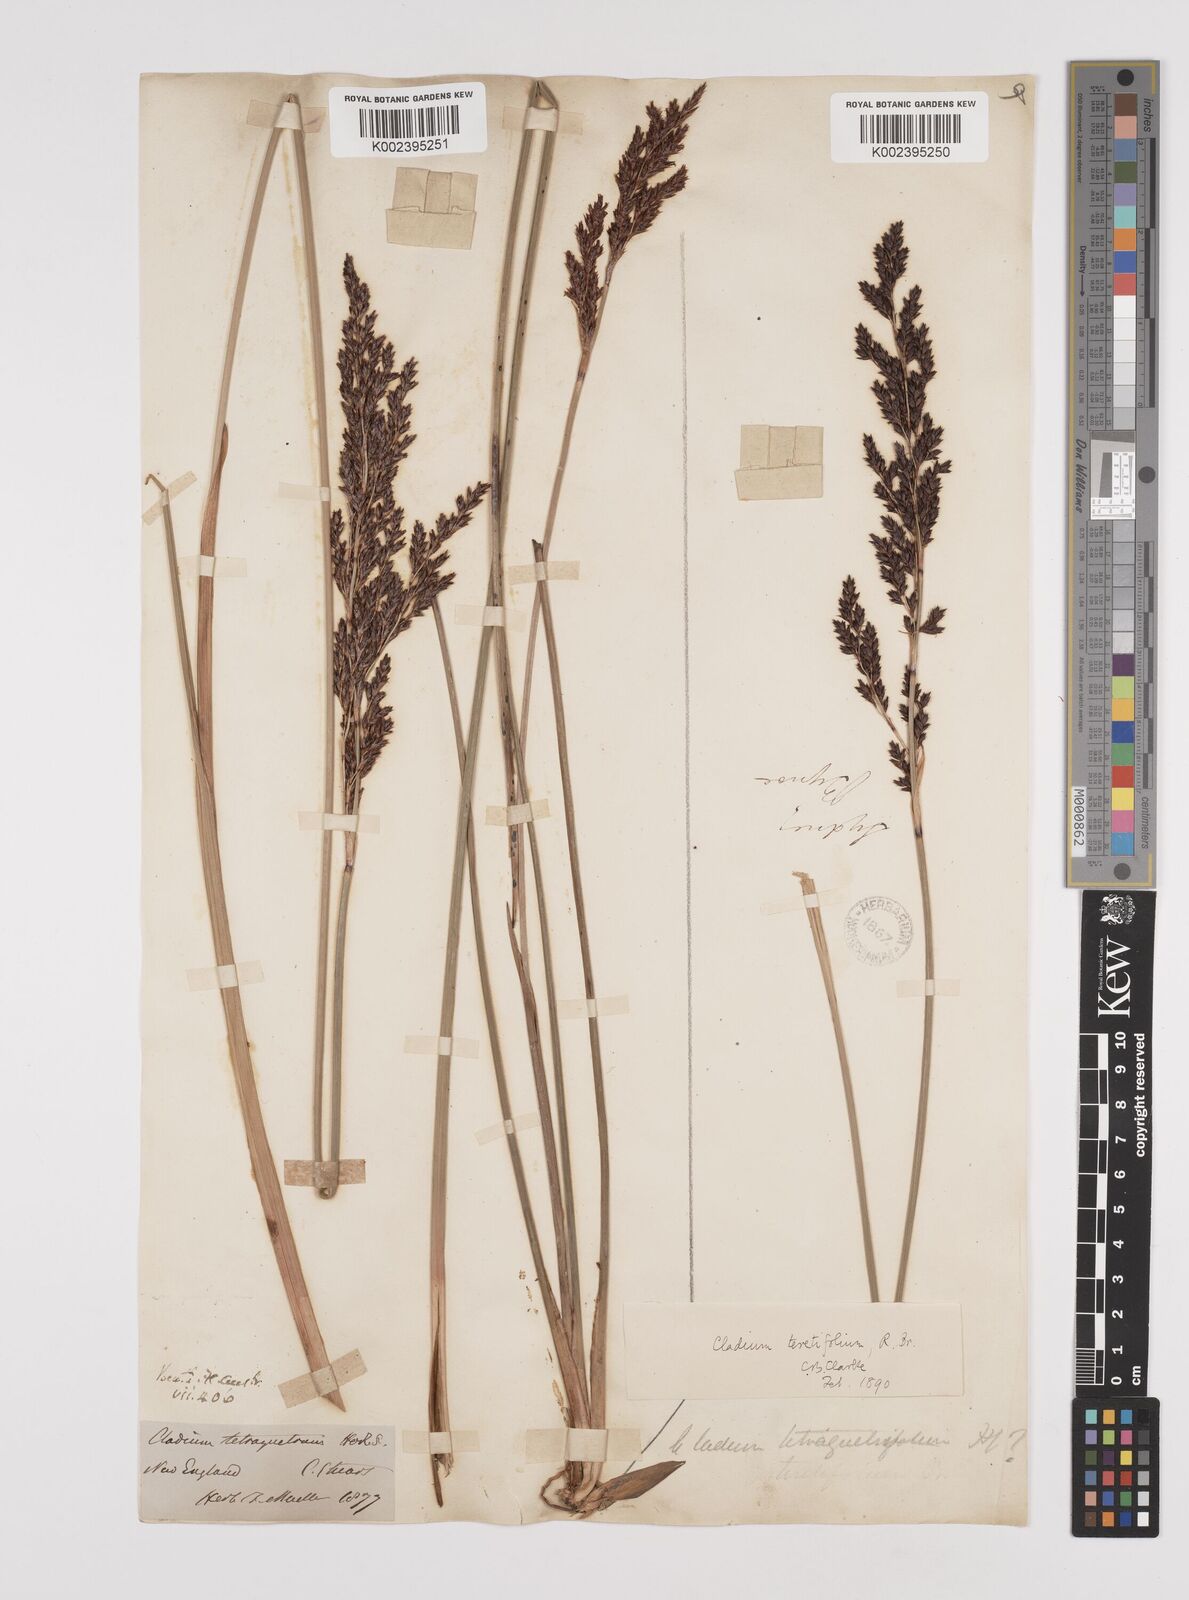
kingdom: Plantae
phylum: Tracheophyta
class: Liliopsida
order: Poales
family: Cyperaceae
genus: Machaerina
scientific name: Machaerina tetragona
